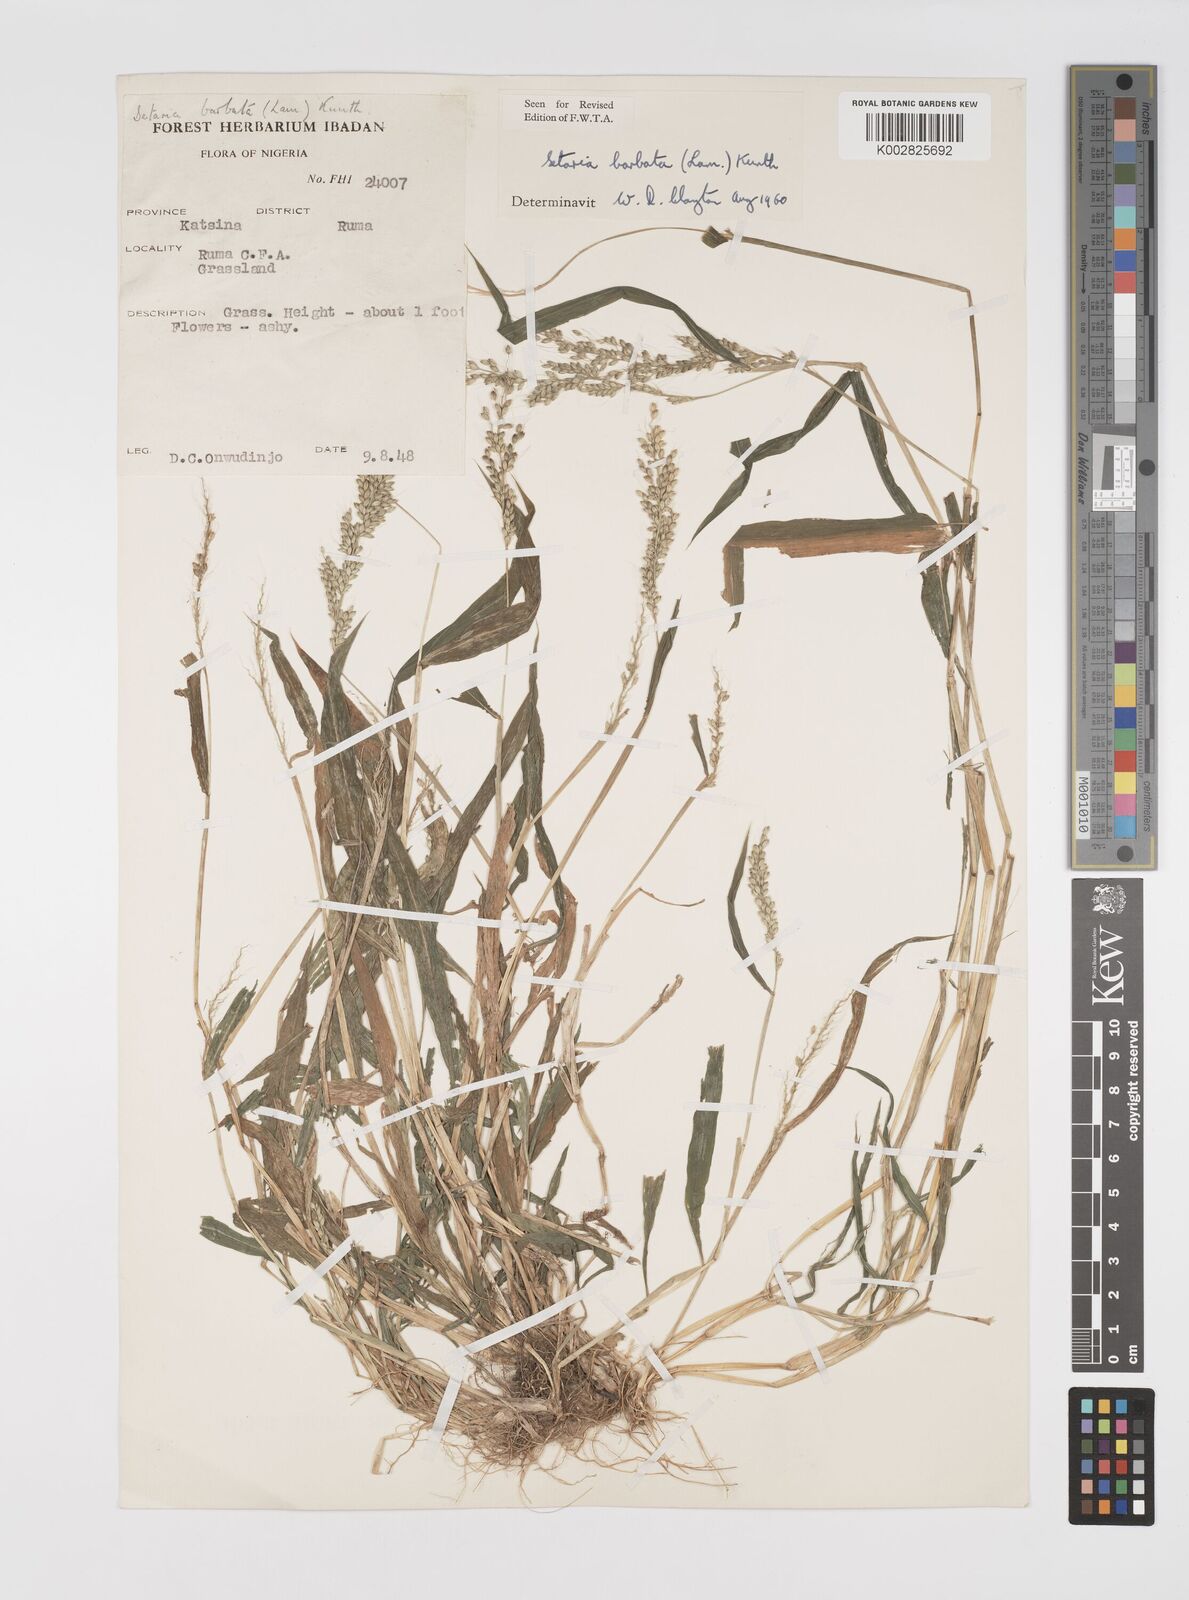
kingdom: Plantae
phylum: Tracheophyta
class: Liliopsida
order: Poales
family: Poaceae
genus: Setaria
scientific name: Setaria barbata
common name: East indian bristlegrass
